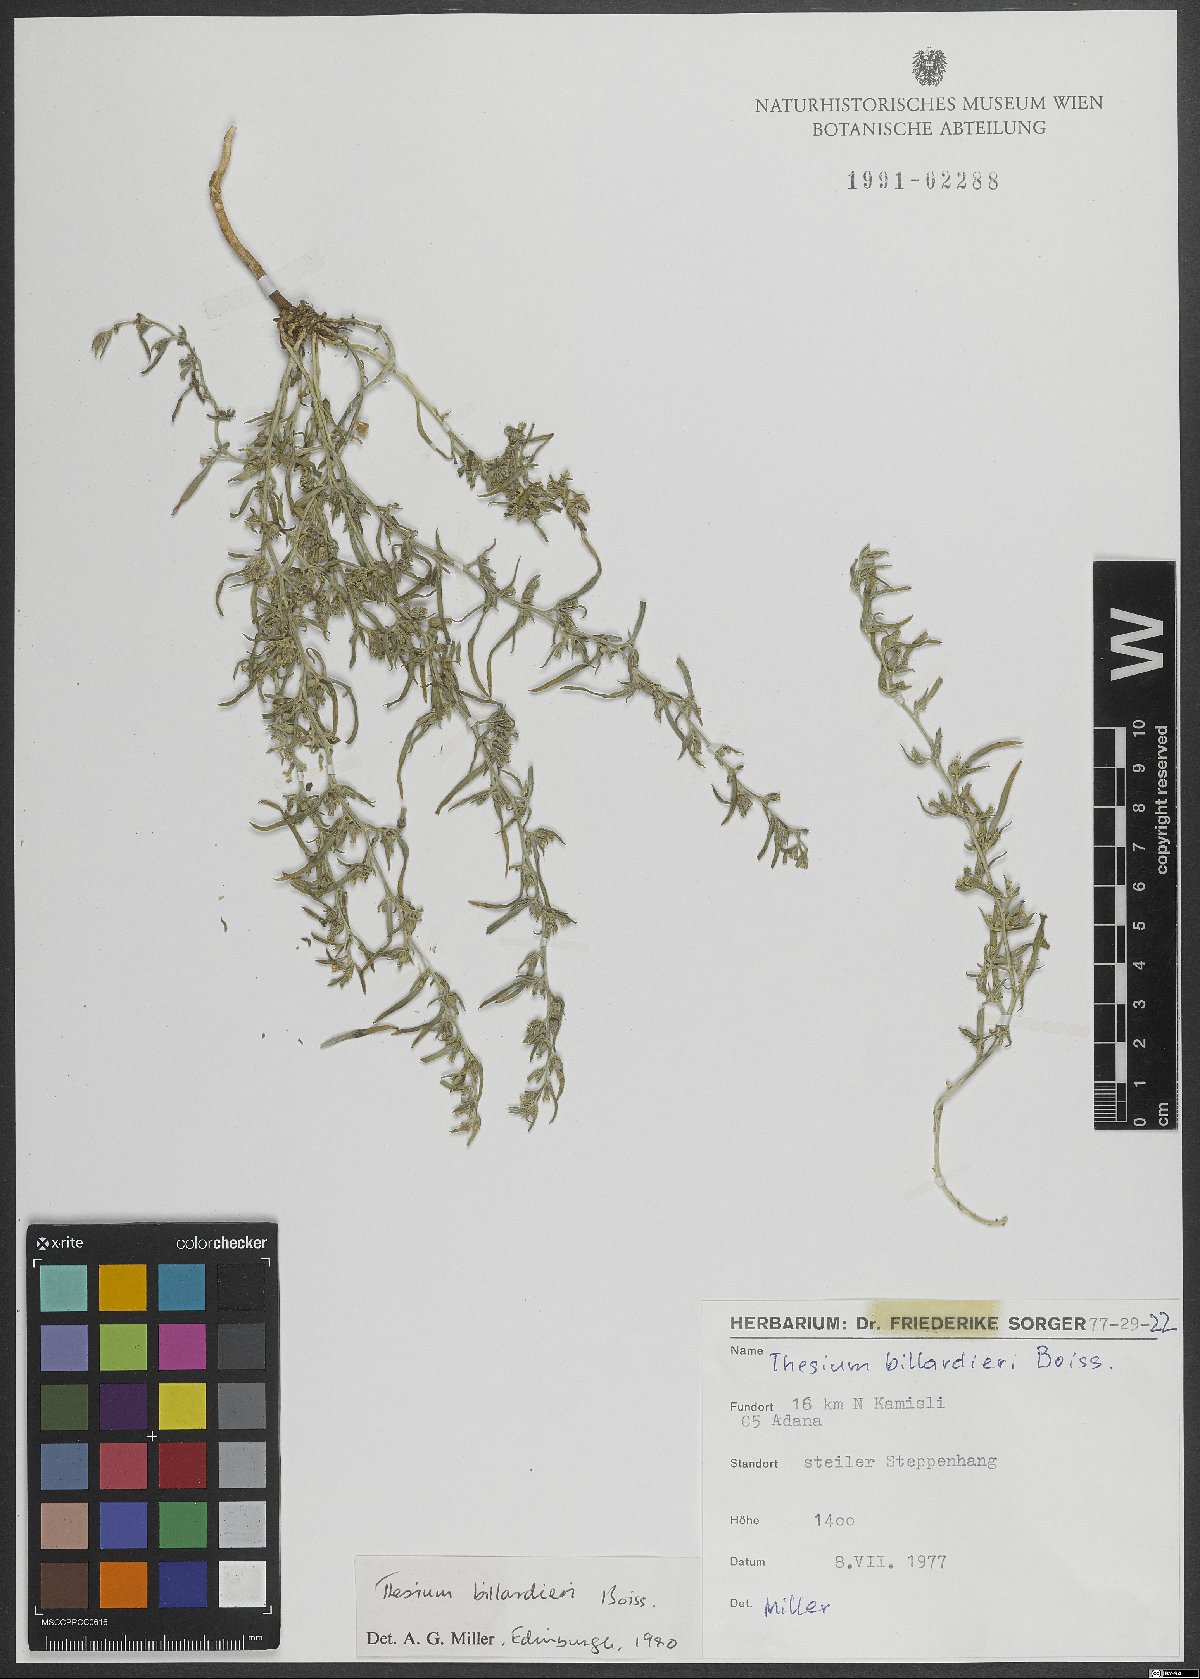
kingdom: Plantae
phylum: Tracheophyta
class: Magnoliopsida
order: Santalales
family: Thesiaceae
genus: Thesium
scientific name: Thesium billardierei
